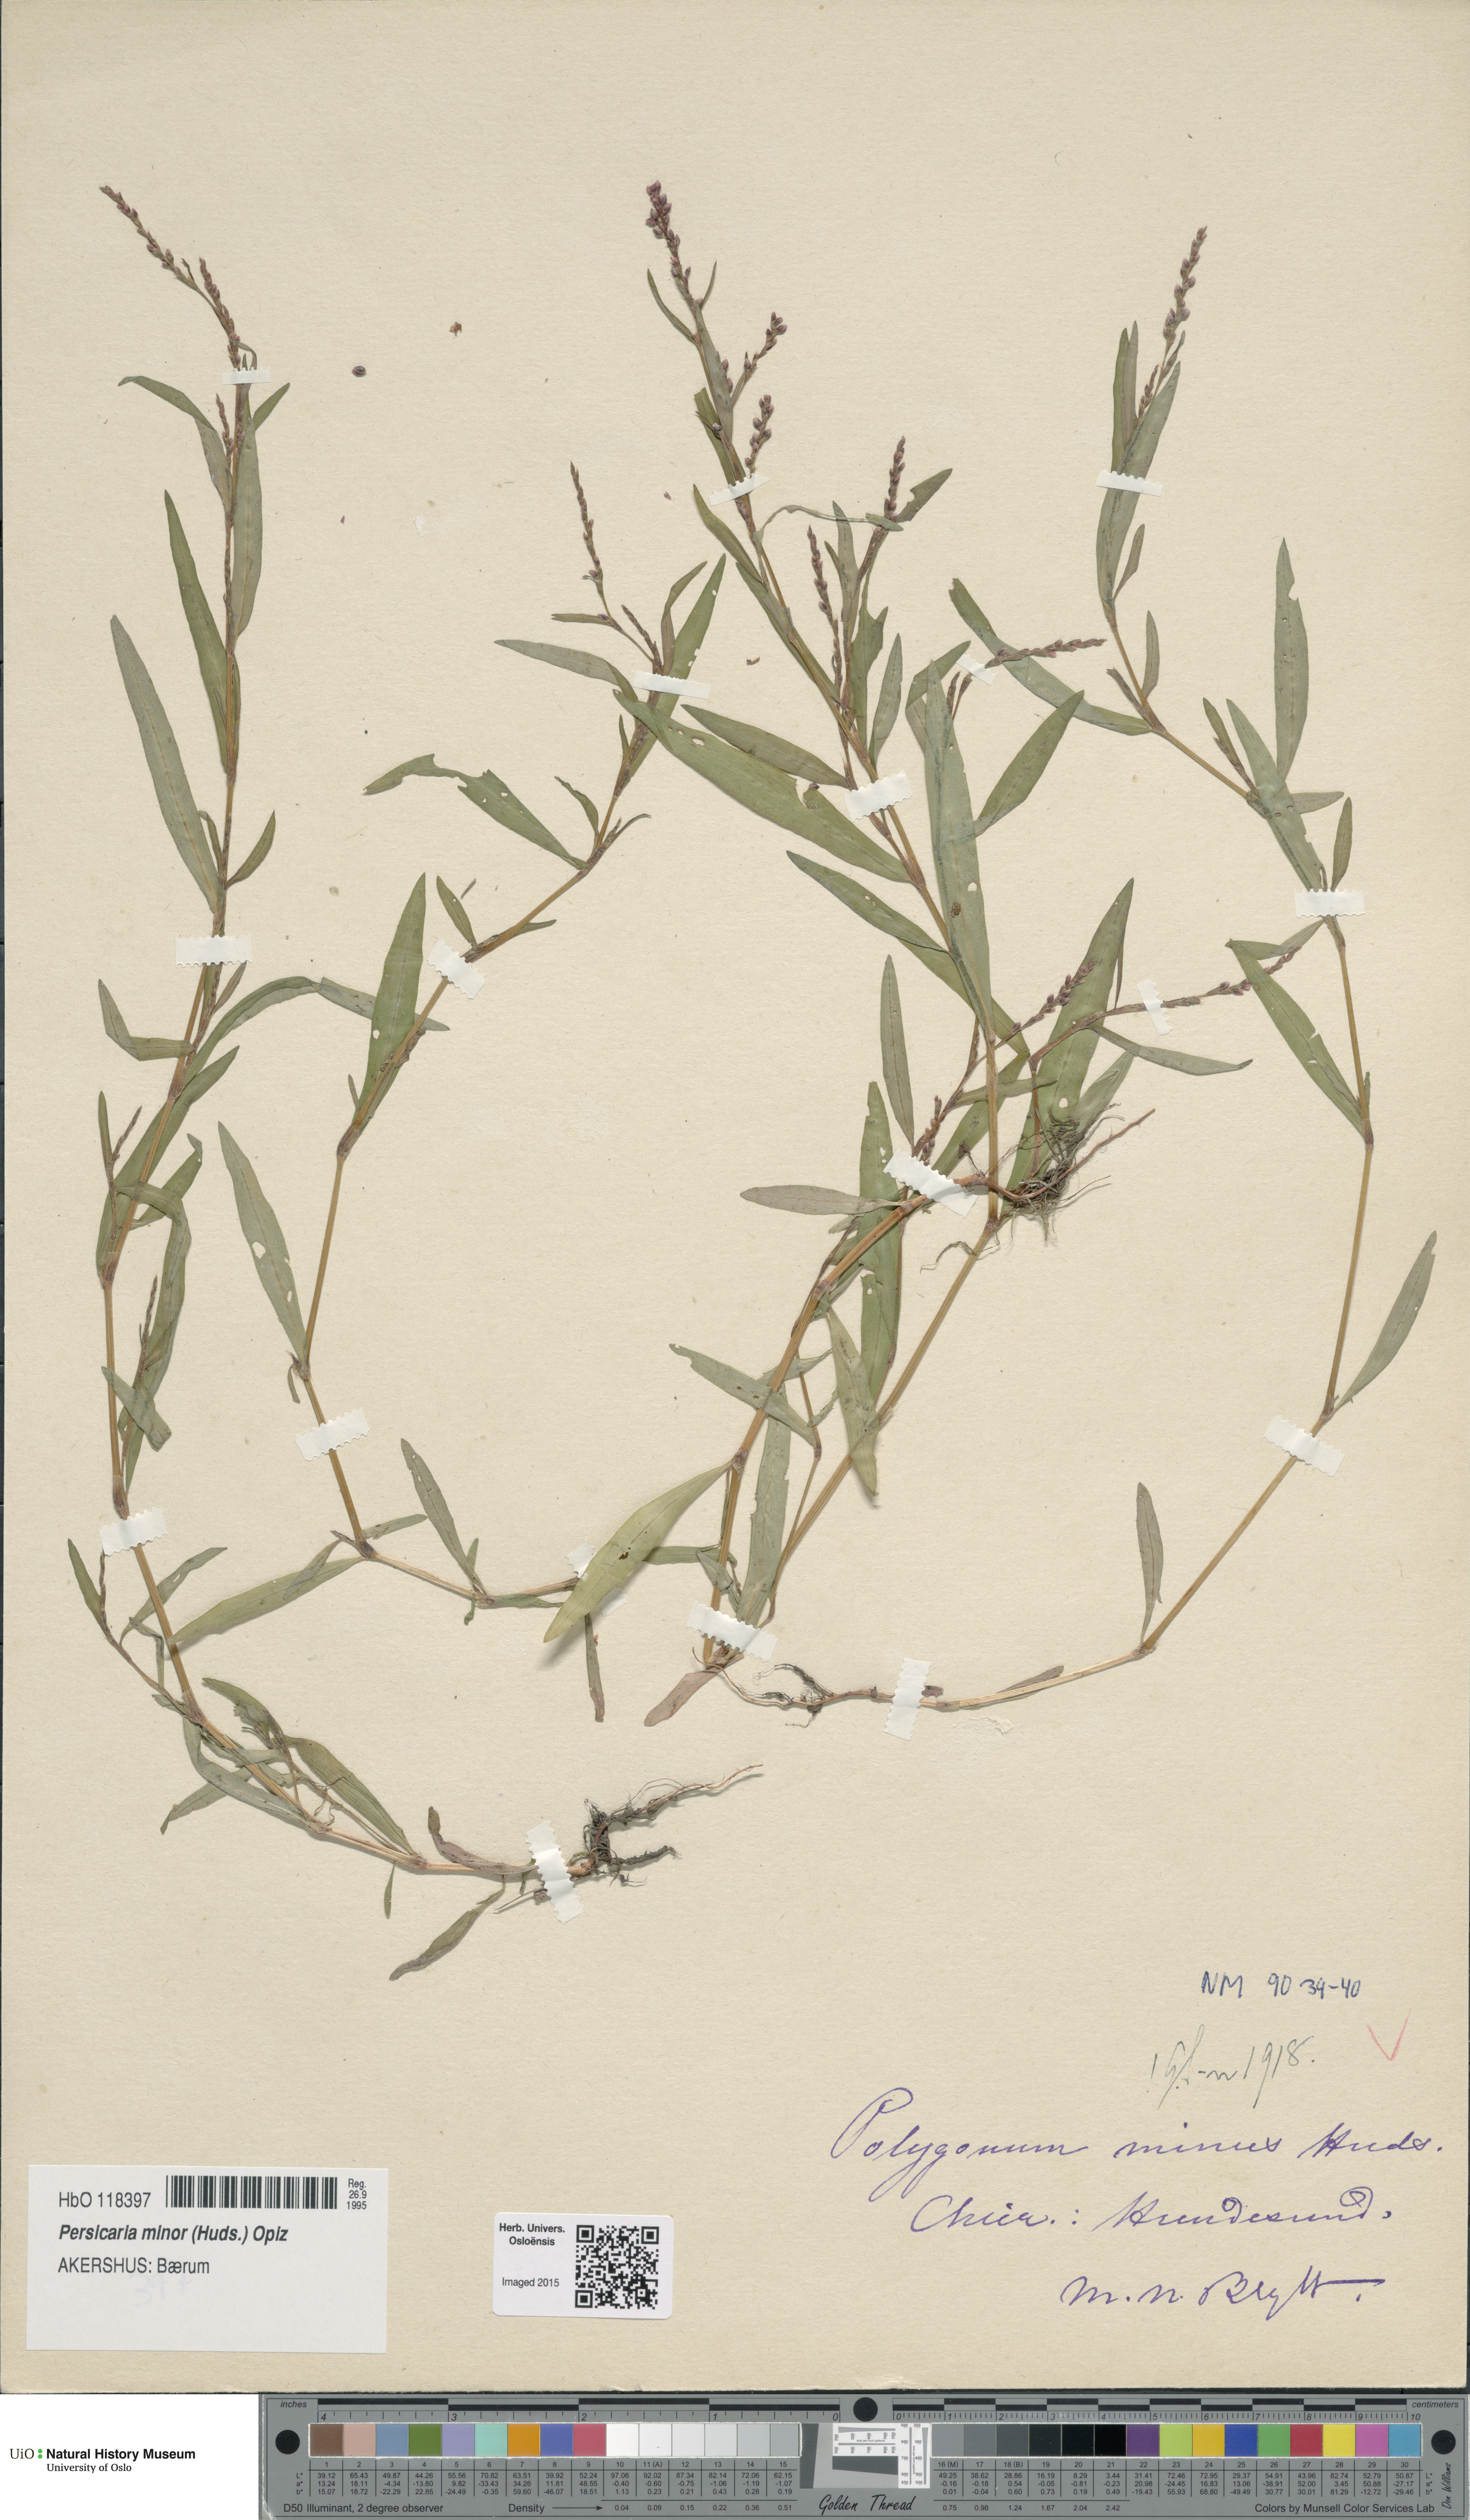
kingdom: Plantae
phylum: Tracheophyta
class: Magnoliopsida
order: Caryophyllales
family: Polygonaceae
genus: Persicaria
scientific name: Persicaria minor
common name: Small water-pepper
